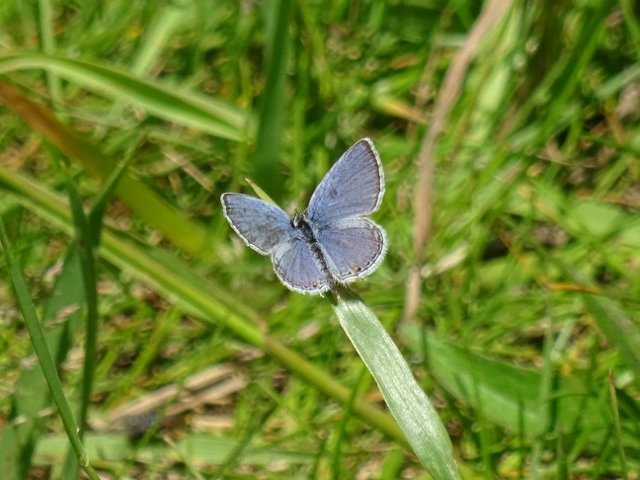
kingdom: Animalia
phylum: Arthropoda
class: Insecta
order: Lepidoptera
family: Lycaenidae
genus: Elkalyce
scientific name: Elkalyce comyntas
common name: Eastern Tailed-Blue
